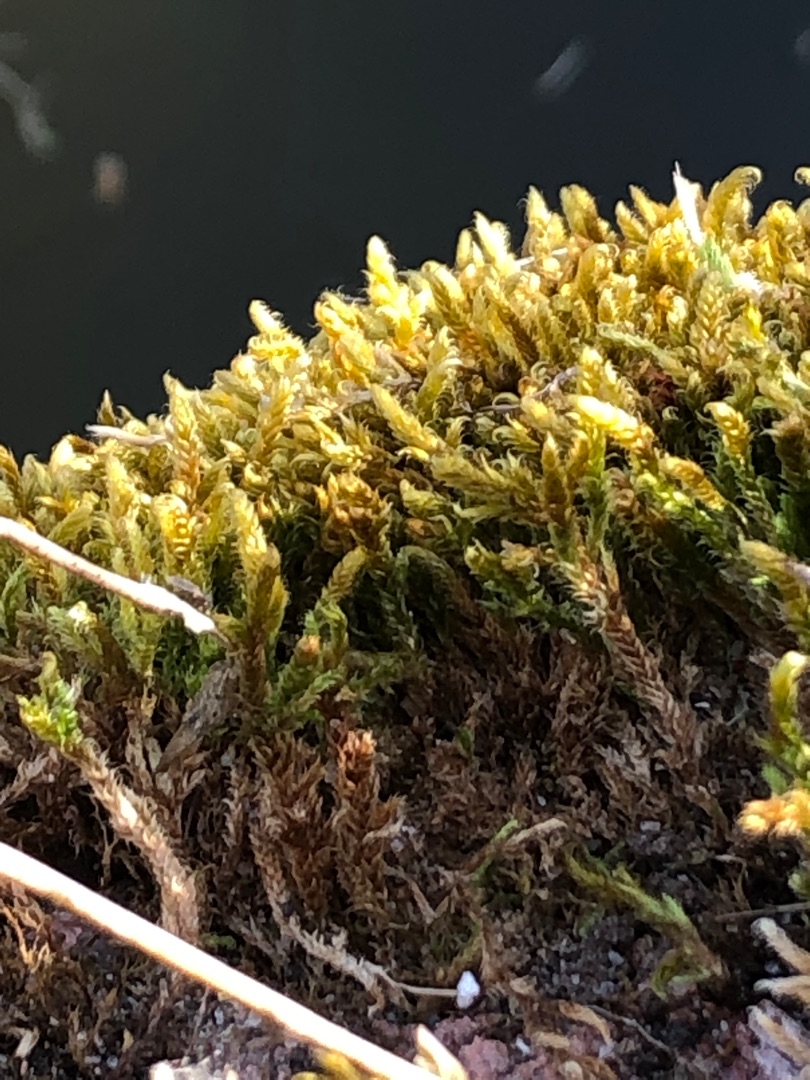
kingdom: Plantae
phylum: Bryophyta
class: Bryopsida
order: Hypnales
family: Hypnaceae
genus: Hypnum
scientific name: Hypnum cupressiforme
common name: Almindelig cypresmos
